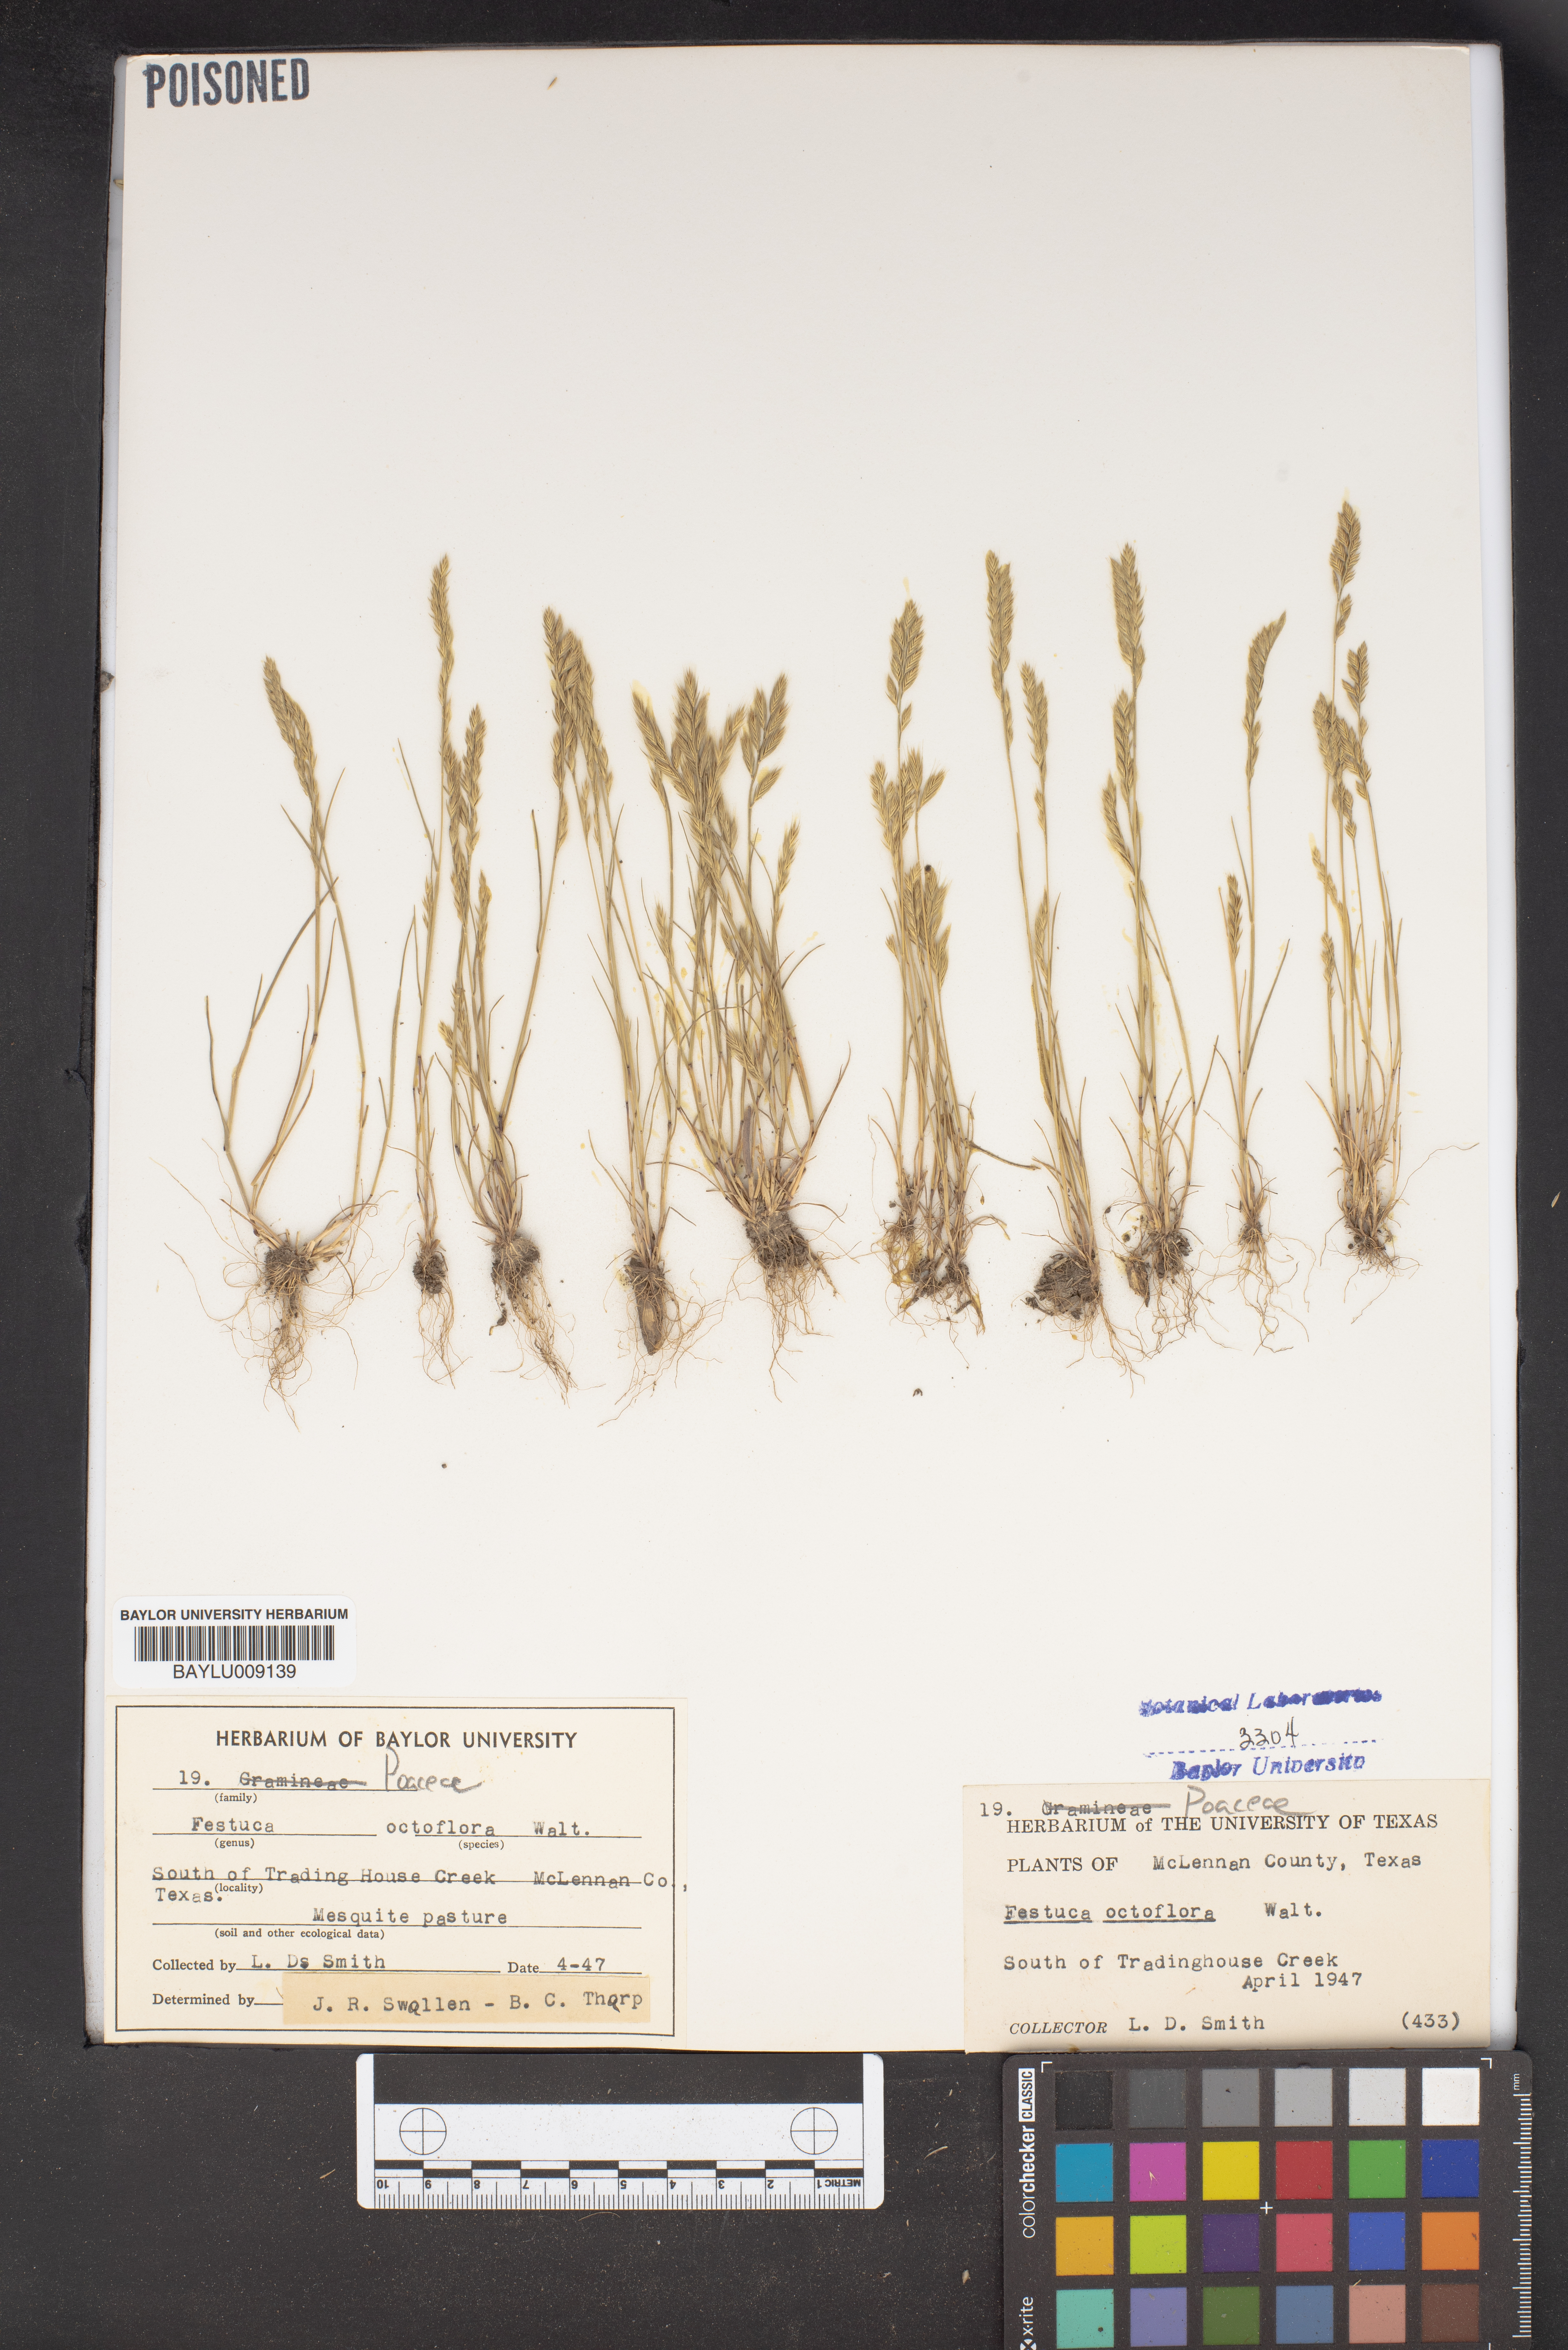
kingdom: Plantae
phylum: Tracheophyta
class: Liliopsida
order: Poales
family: Poaceae
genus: Festuca
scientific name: Festuca octoflora
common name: Sixweeks grass
